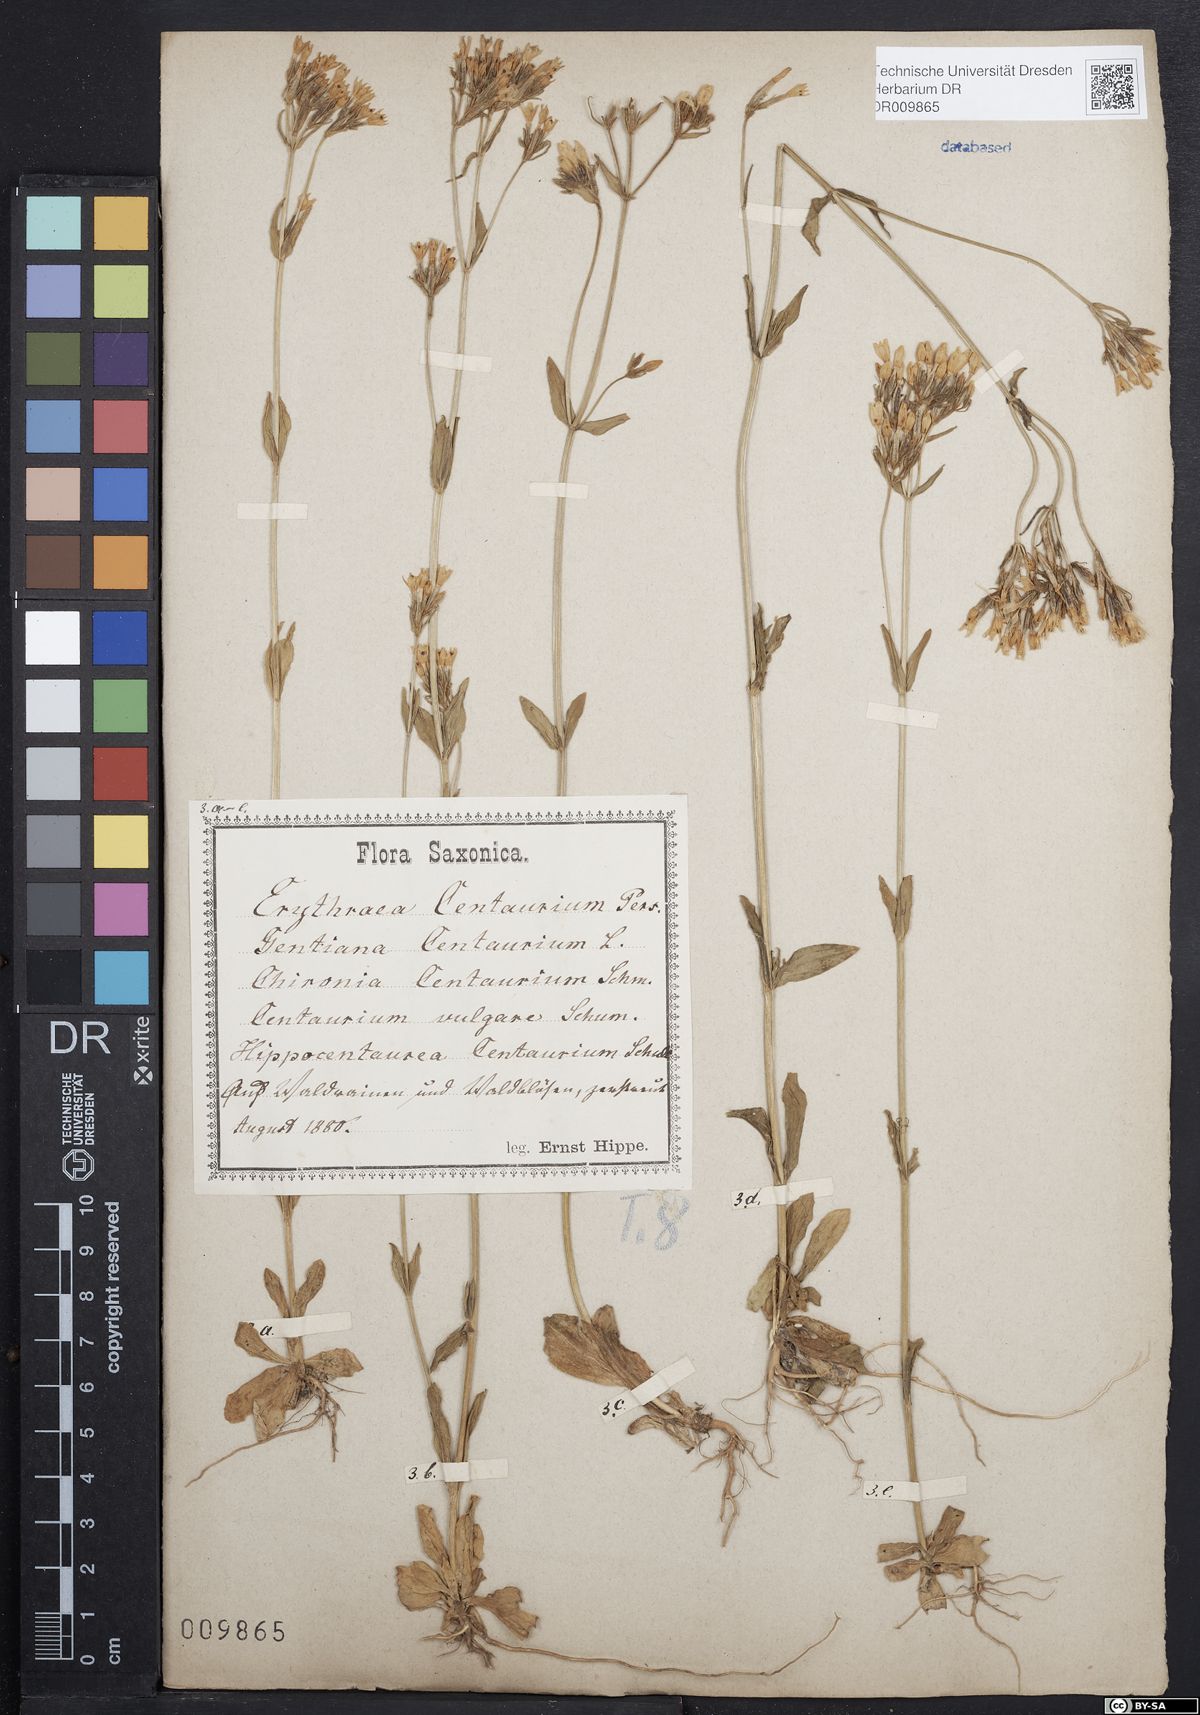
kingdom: Plantae
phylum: Tracheophyta
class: Magnoliopsida
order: Gentianales
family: Gentianaceae
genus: Centaurium
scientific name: Centaurium erythraea
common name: Common centaury
